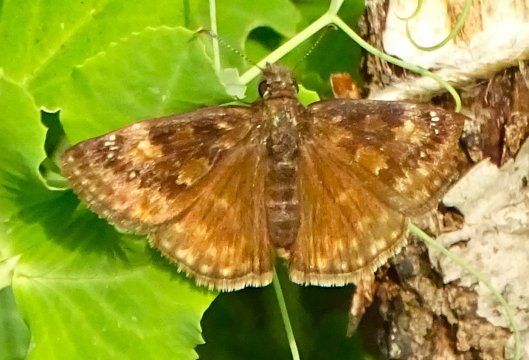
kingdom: Animalia
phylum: Arthropoda
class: Insecta
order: Lepidoptera
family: Hesperiidae
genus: Gesta
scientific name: Gesta
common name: Wild Indigo Duskywing
